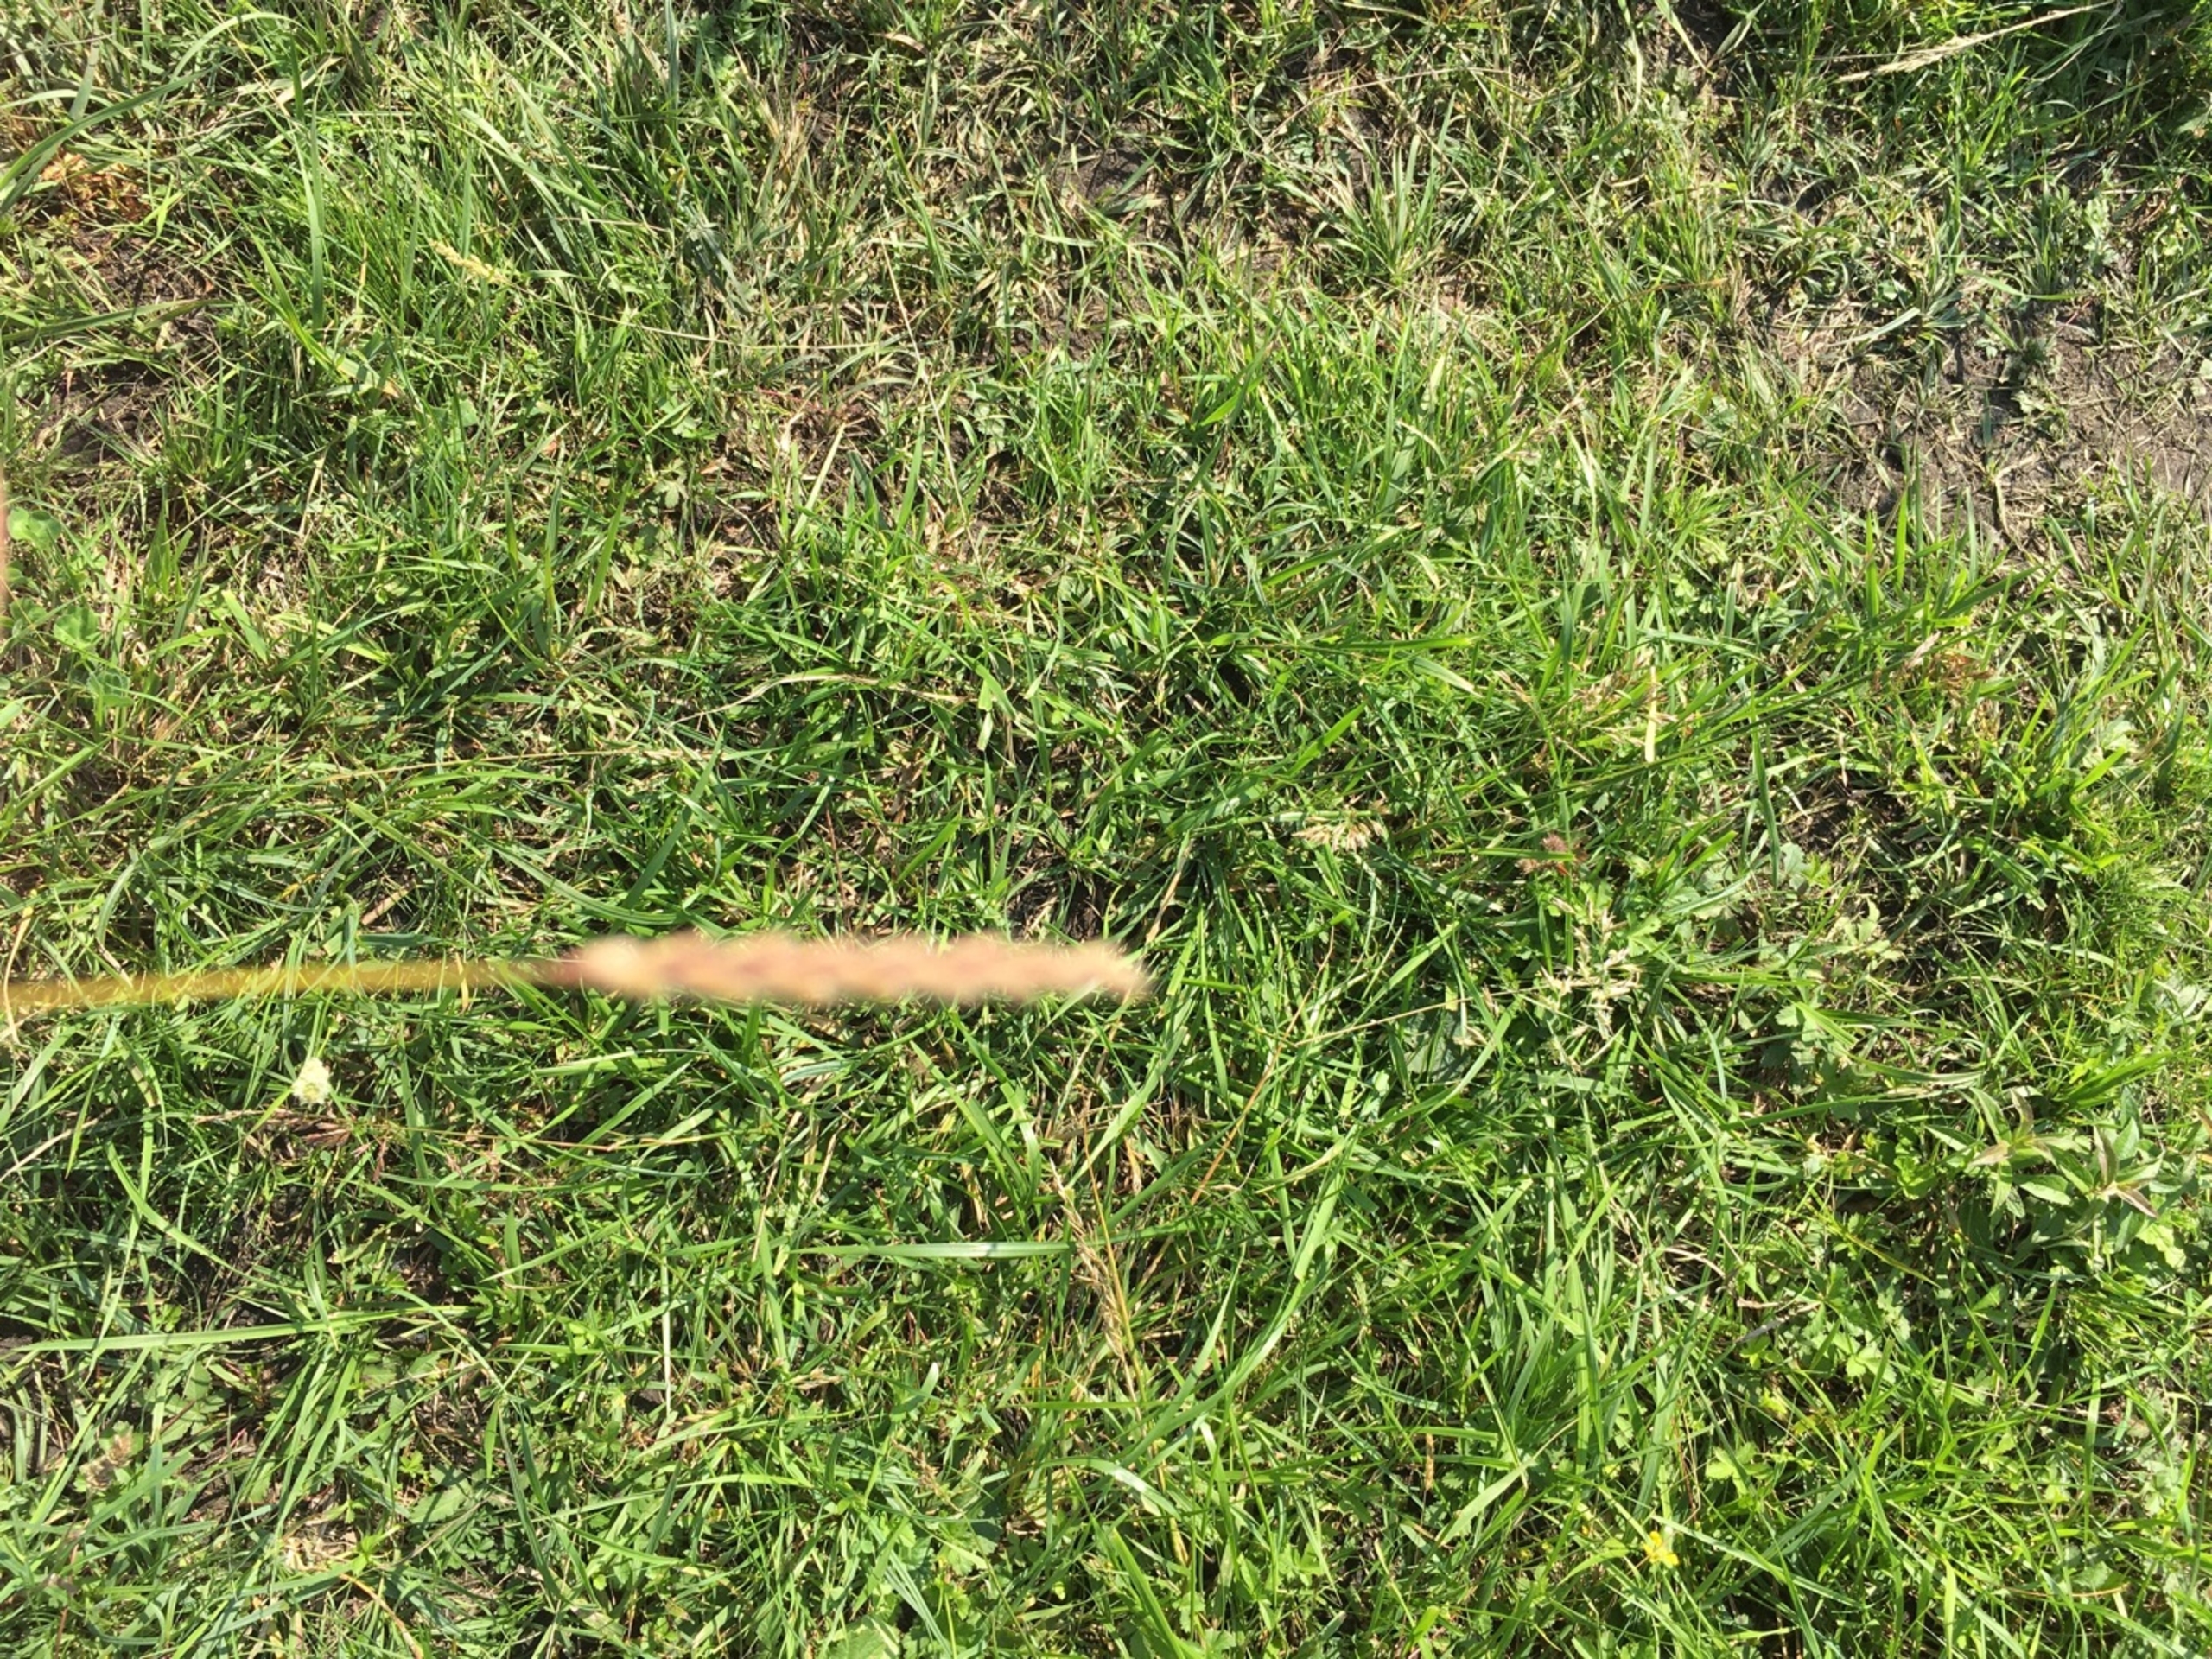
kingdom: Plantae
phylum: Tracheophyta
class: Liliopsida
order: Poales
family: Poaceae
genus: Cynosurus
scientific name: Cynosurus cristatus
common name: Kamgræs
